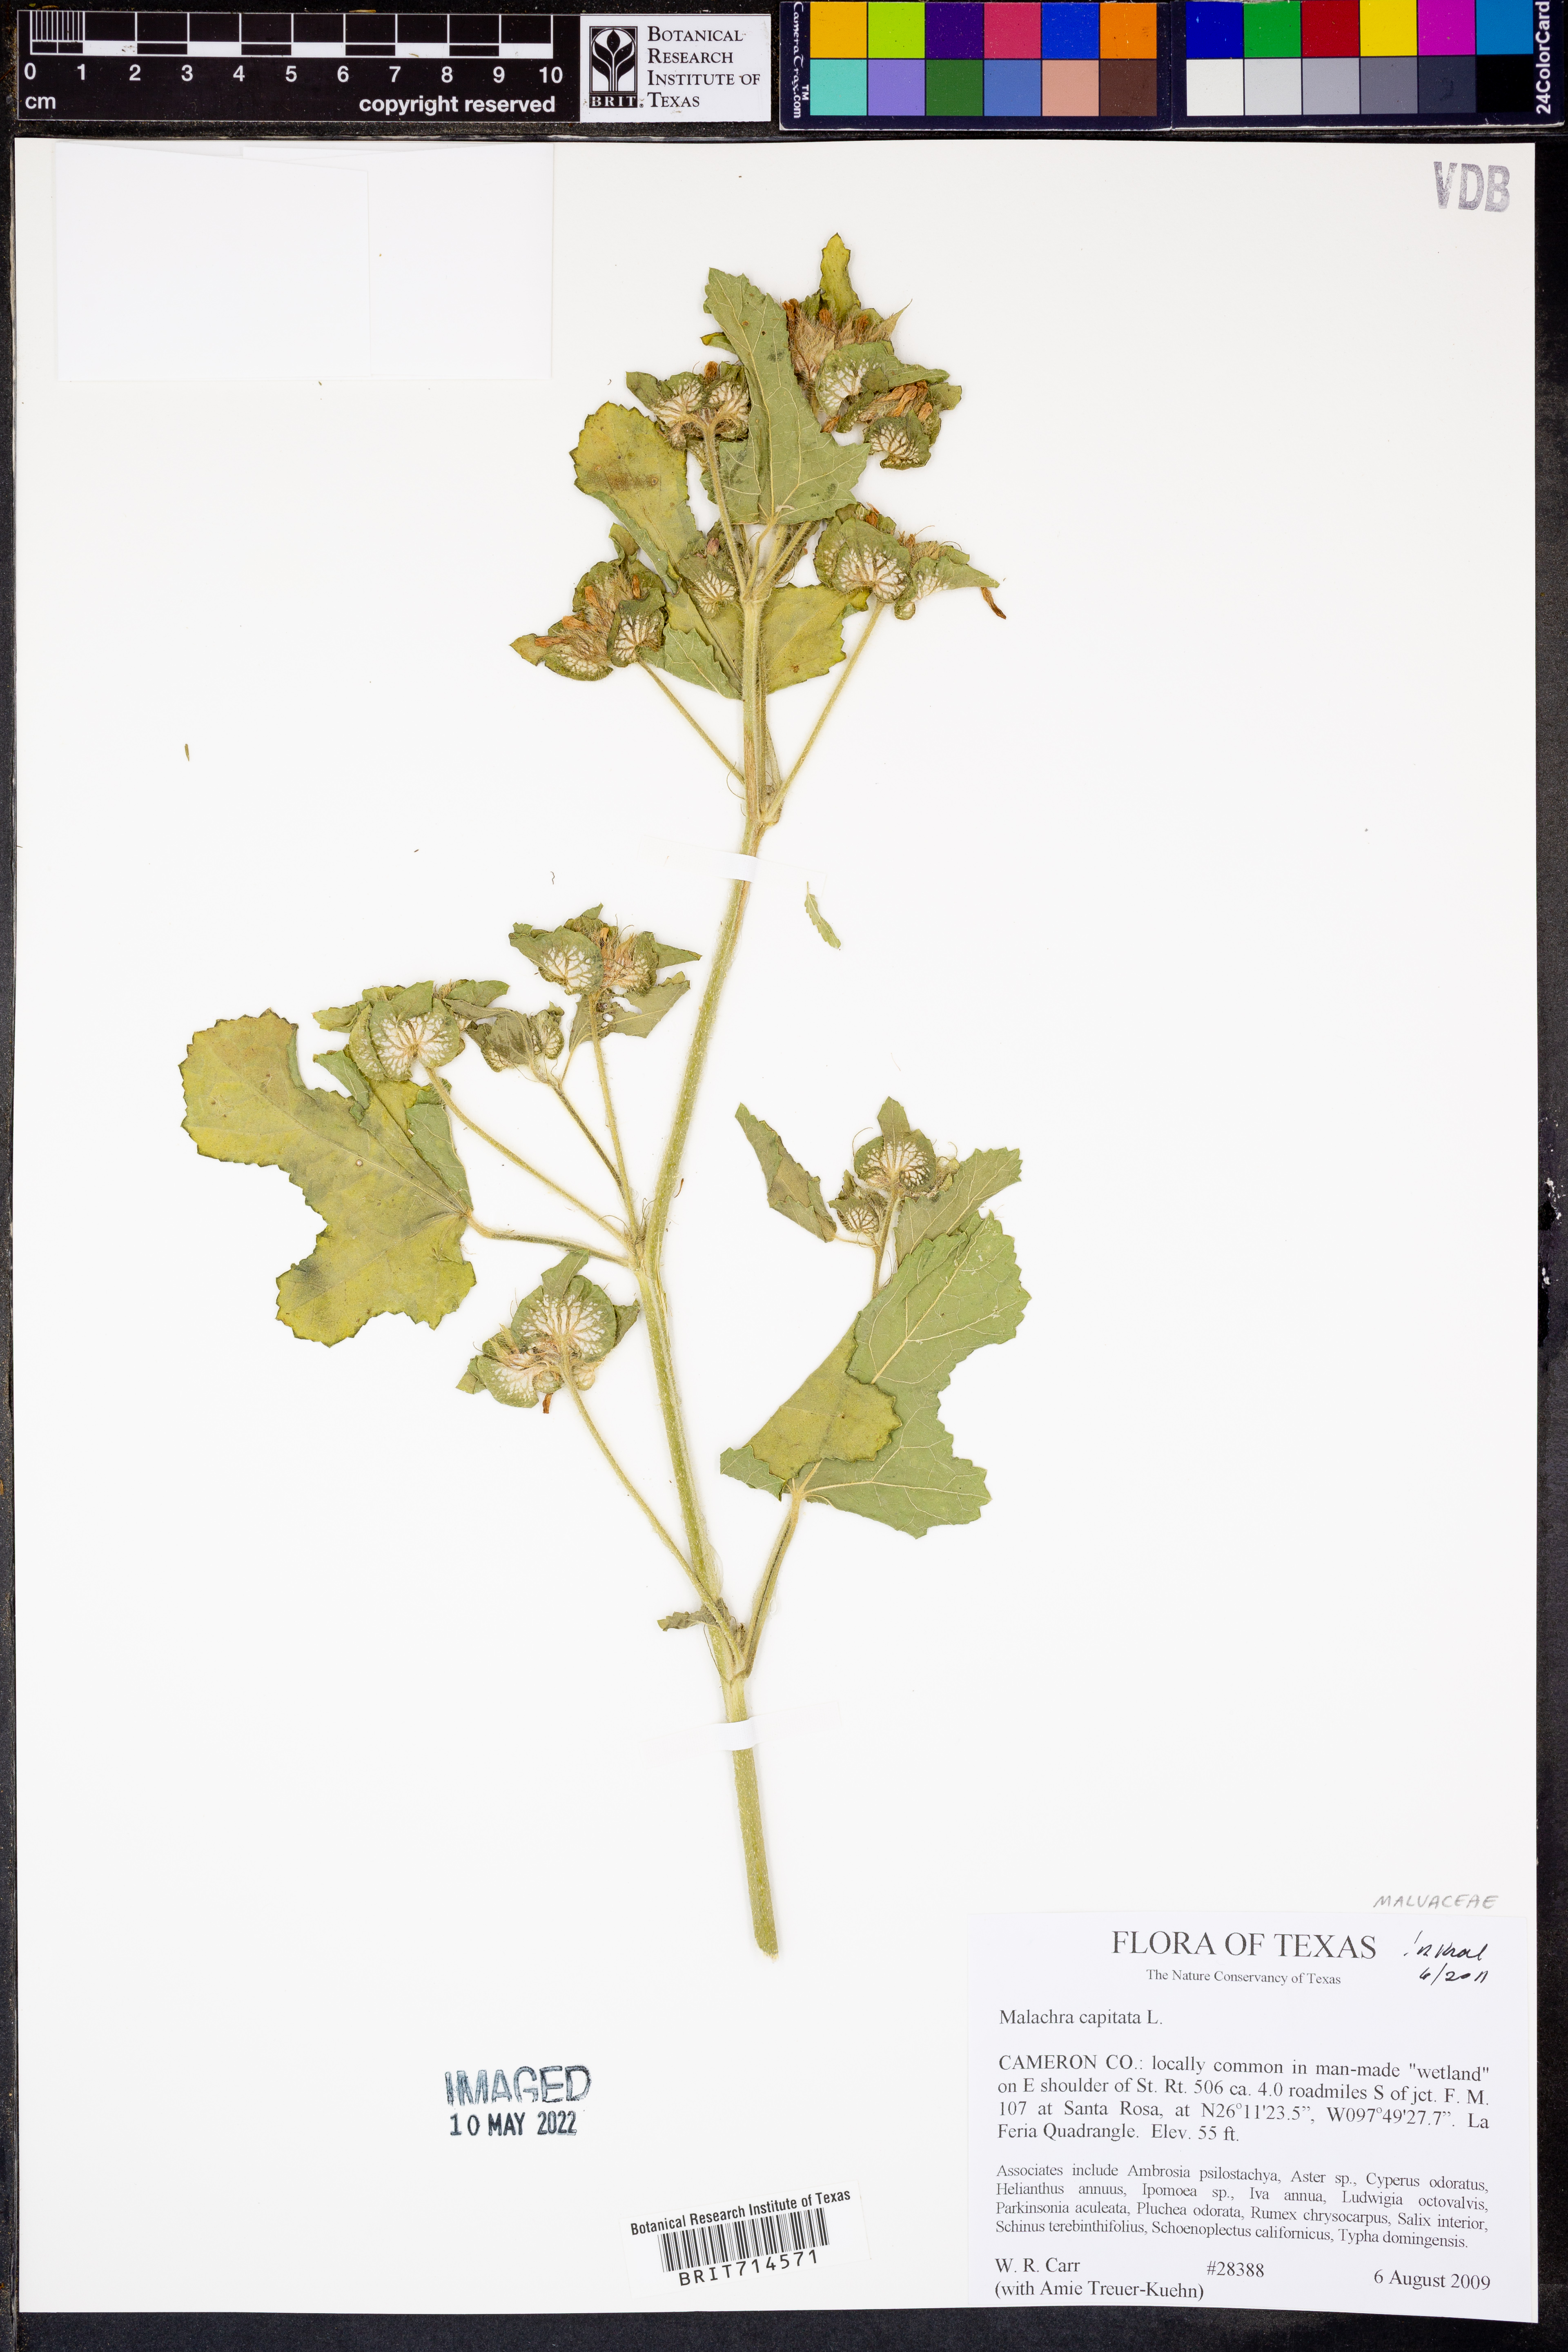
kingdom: Plantae
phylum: Tracheophyta
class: Magnoliopsida
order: Malvales
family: Malvaceae
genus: Malachra
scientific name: Malachra capitata
